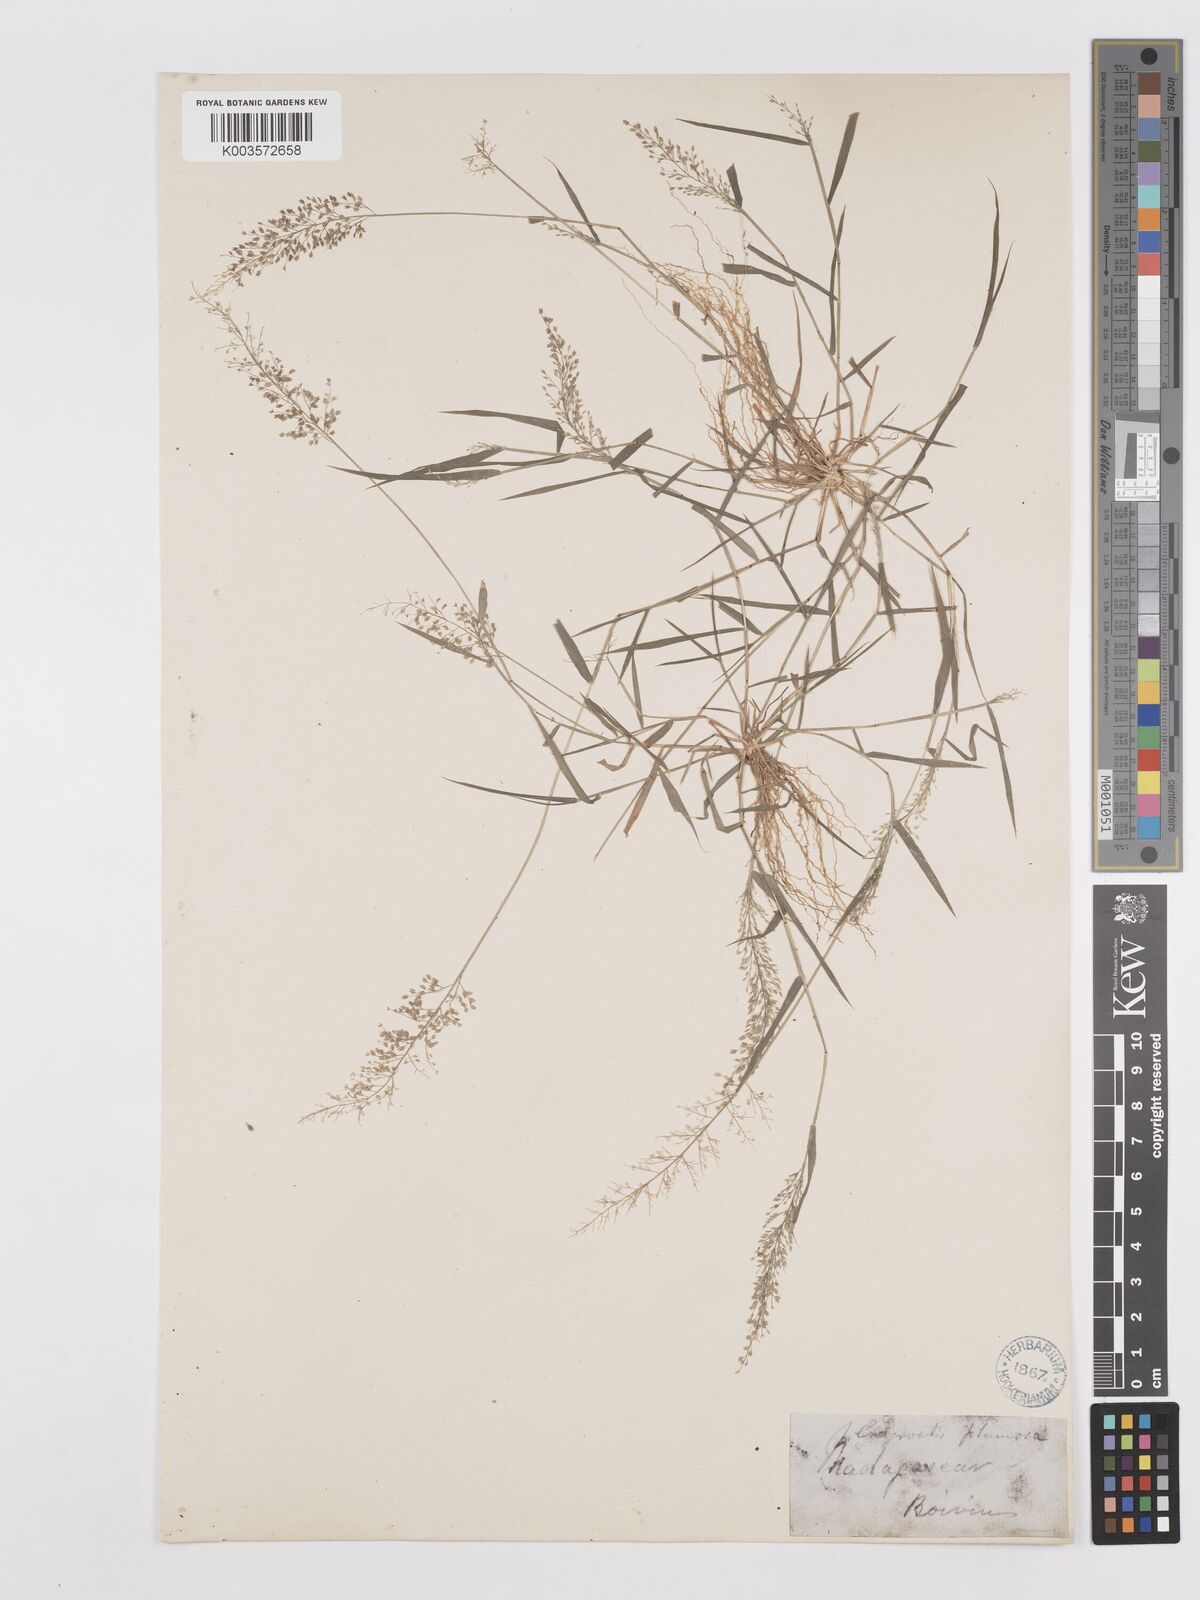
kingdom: Plantae
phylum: Tracheophyta
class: Liliopsida
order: Poales
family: Poaceae
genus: Eragrostis
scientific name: Eragrostis tenella
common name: Japanese lovegrass
